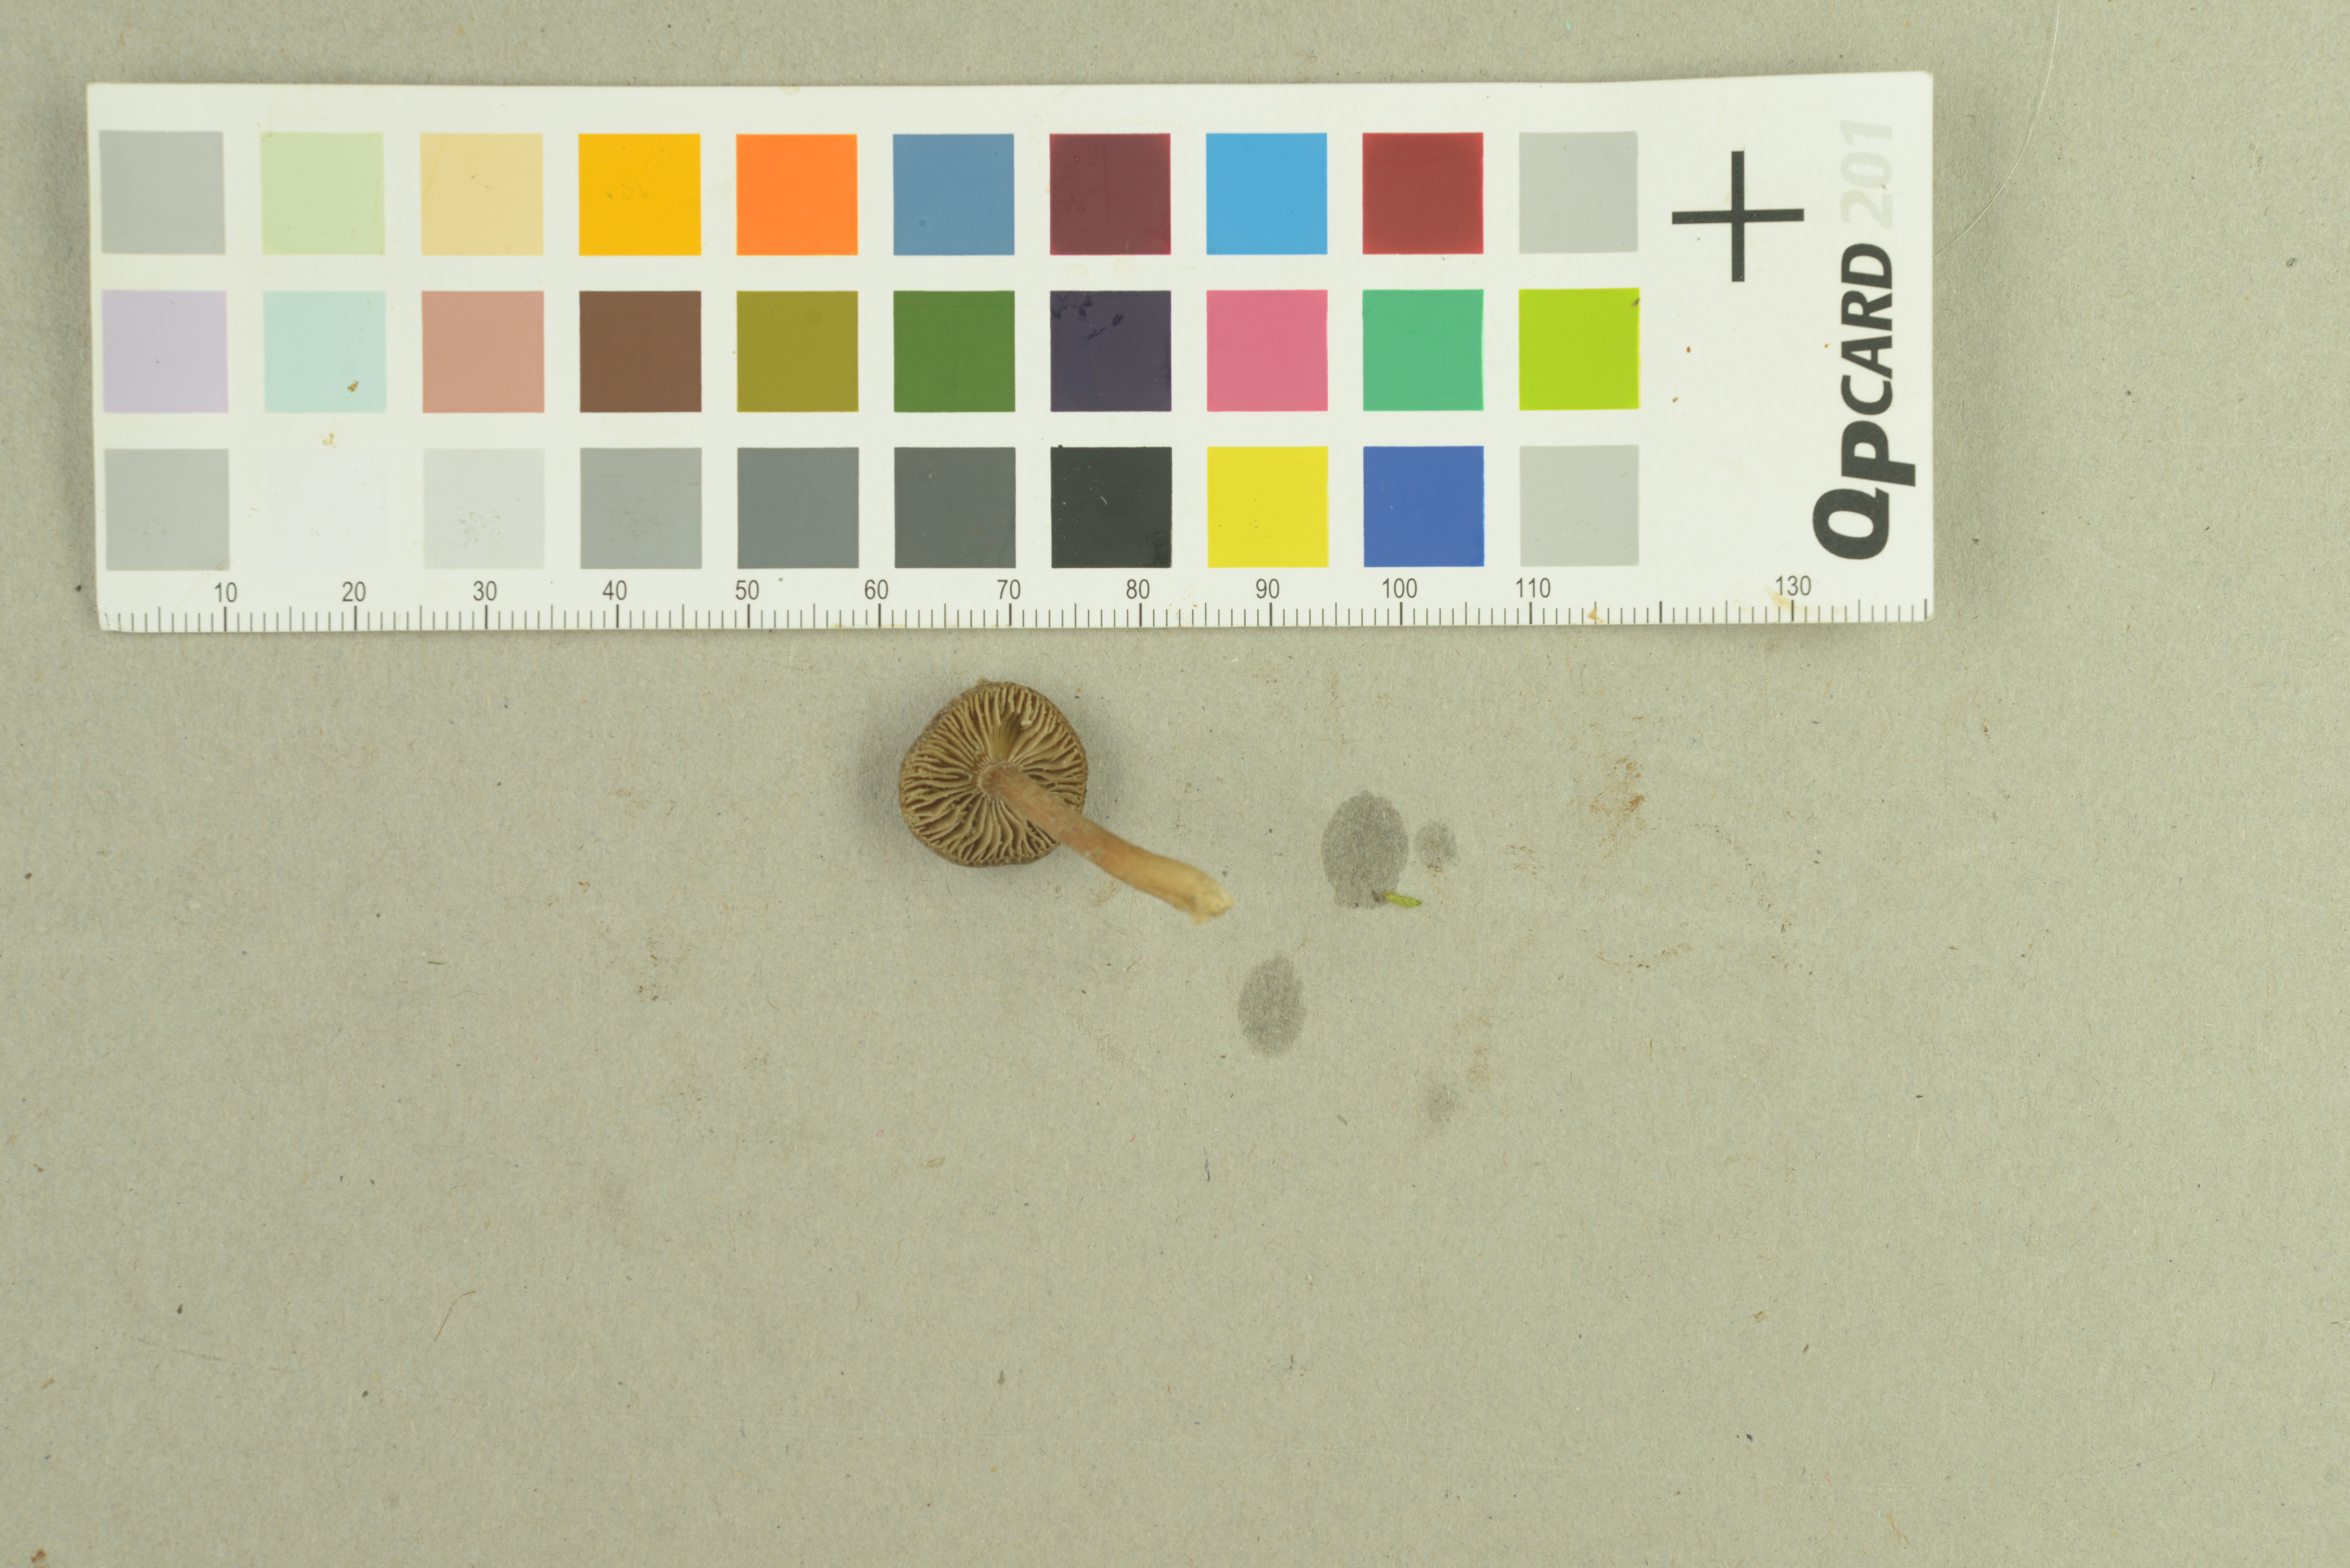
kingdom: Fungi
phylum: Basidiomycota
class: Agaricomycetes
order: Agaricales
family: Inocybaceae
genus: Inocybe
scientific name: Inocybe filiana
